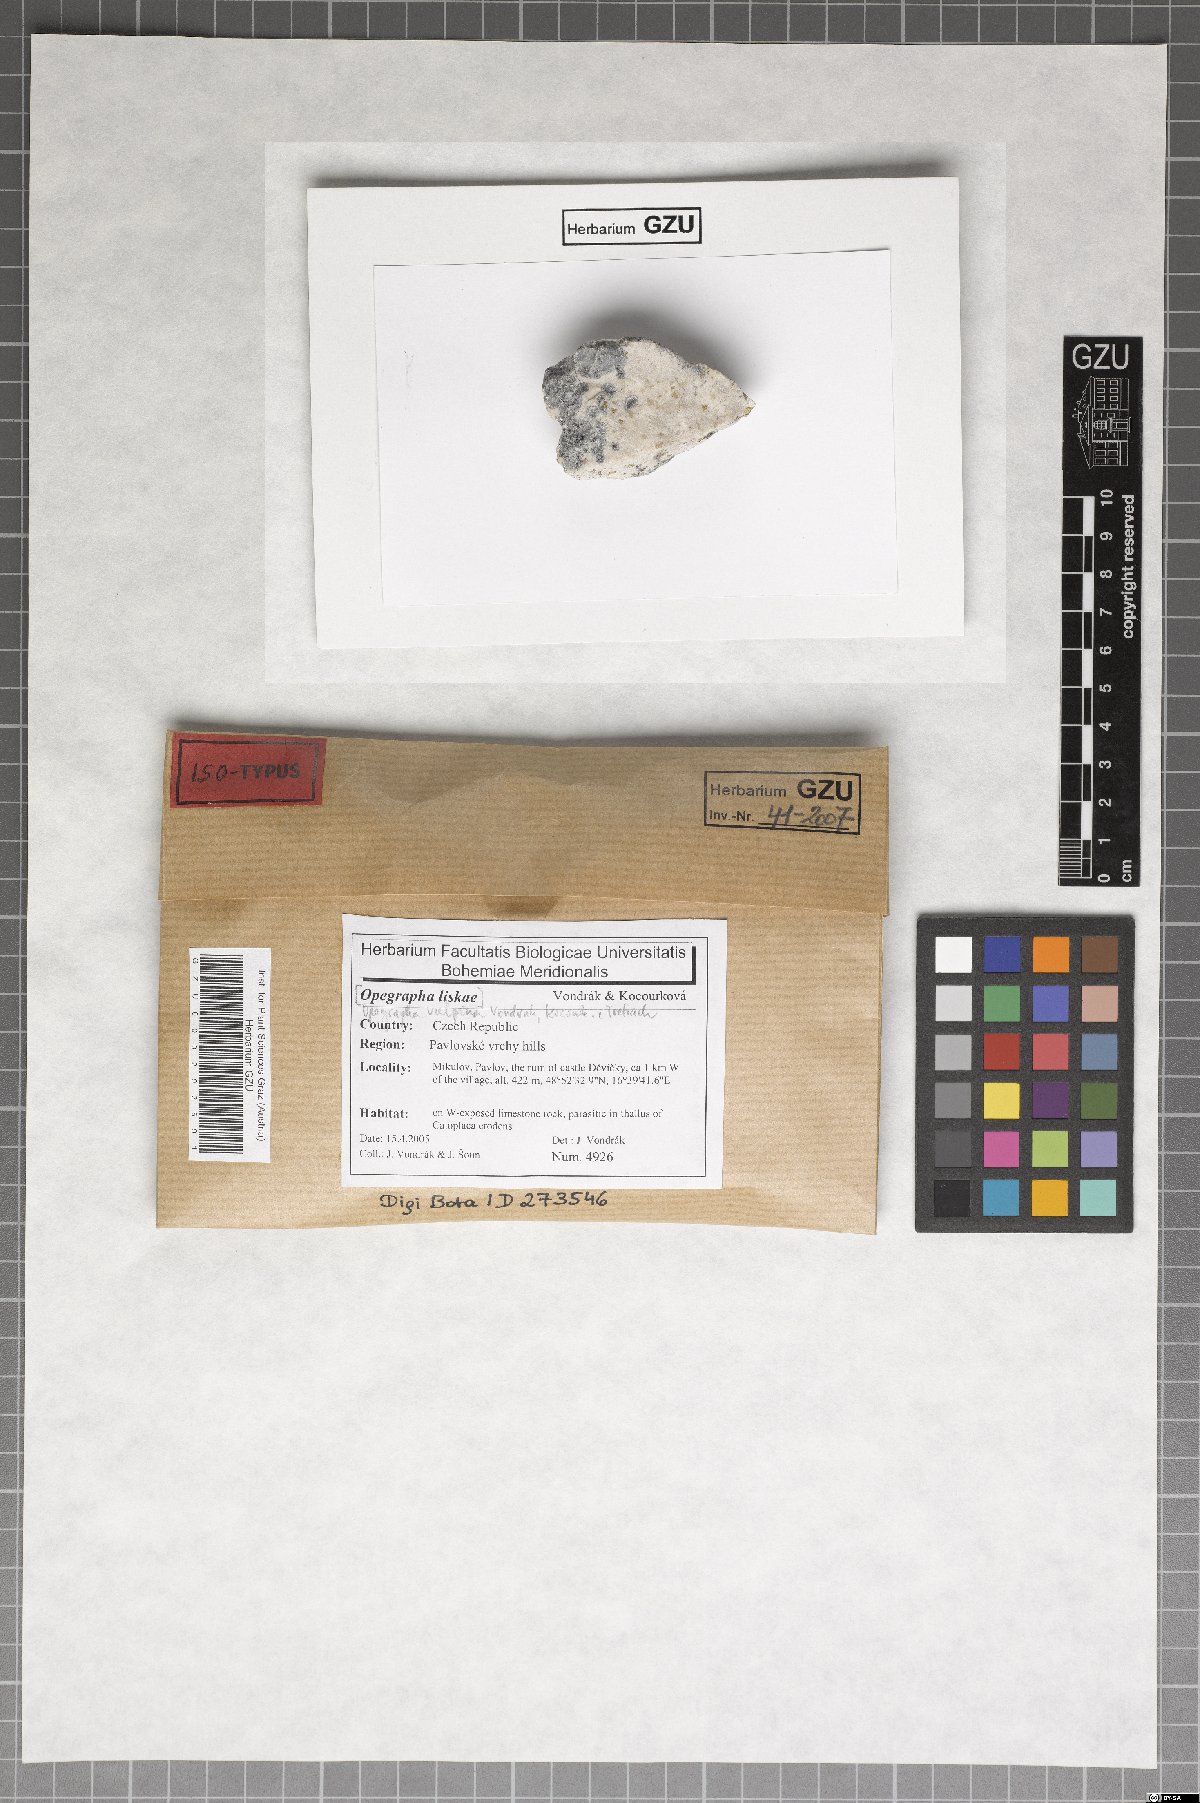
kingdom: Fungi
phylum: Ascomycota
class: Arthoniomycetes
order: Arthoniales
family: Opegraphaceae
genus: Opegrapha
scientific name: Opegrapha vulpina
